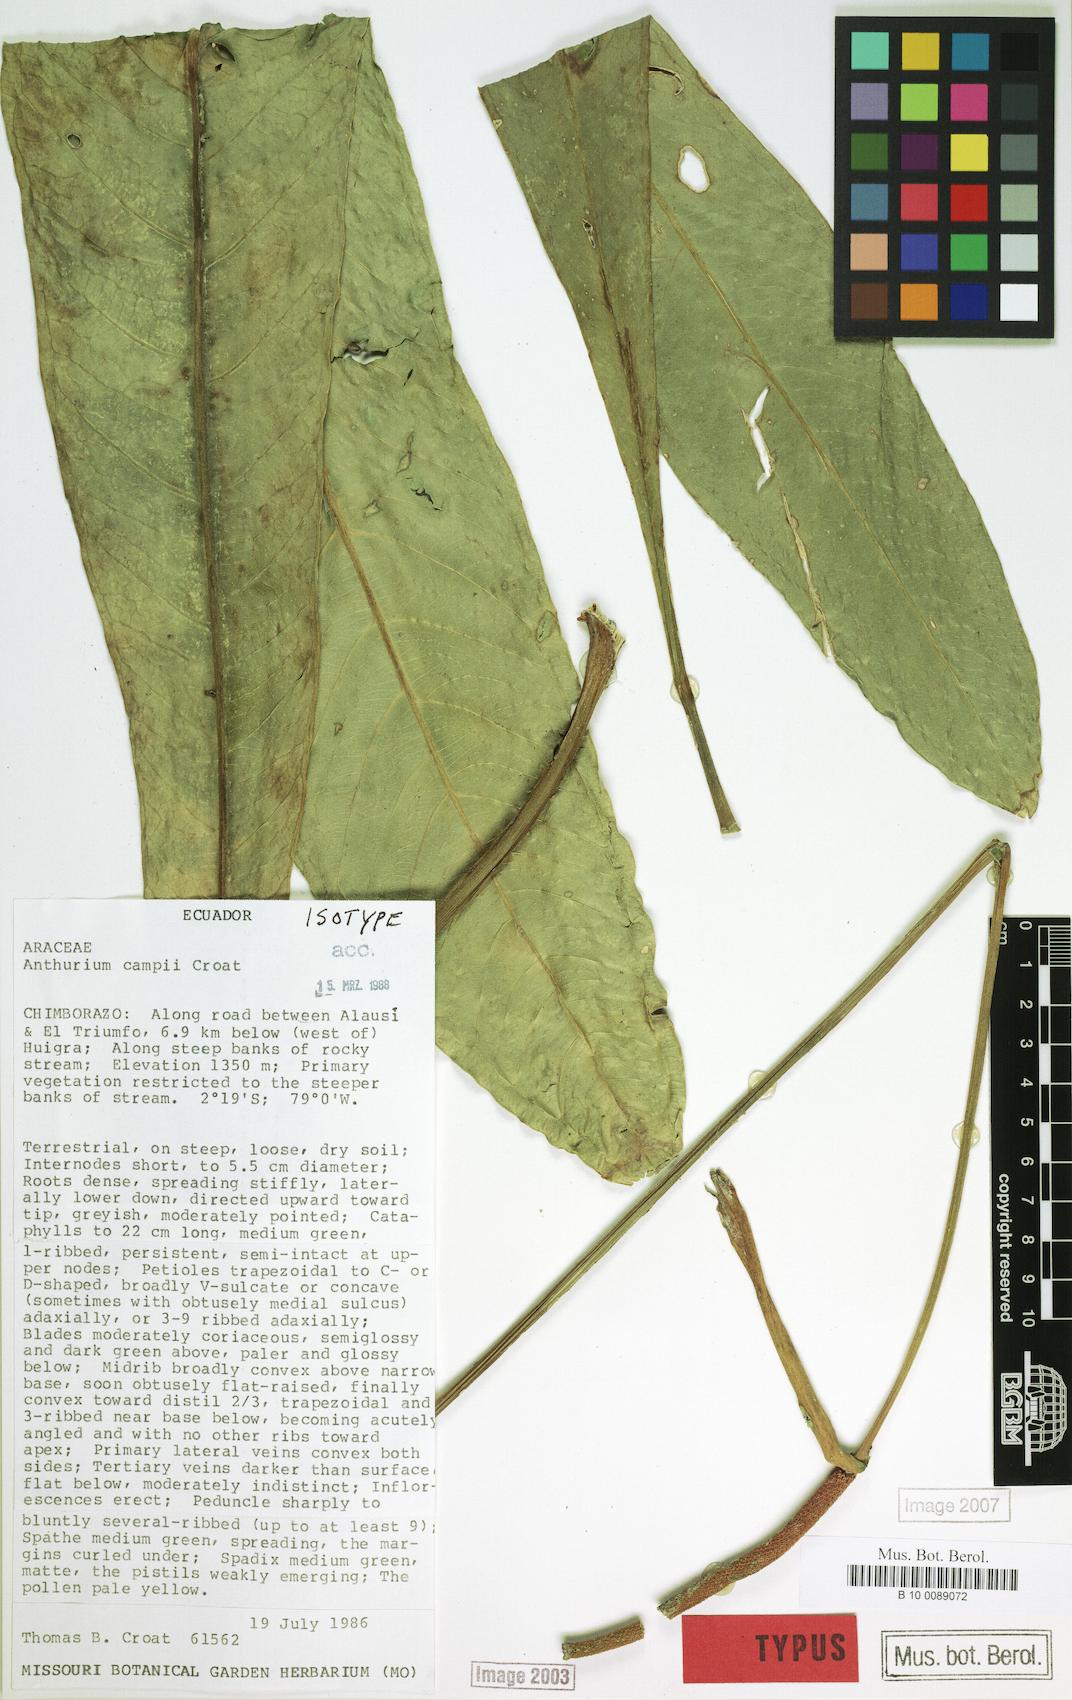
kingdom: Plantae
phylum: Tracheophyta
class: Liliopsida
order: Alismatales
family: Araceae
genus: Anthurium
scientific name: Anthurium campii
